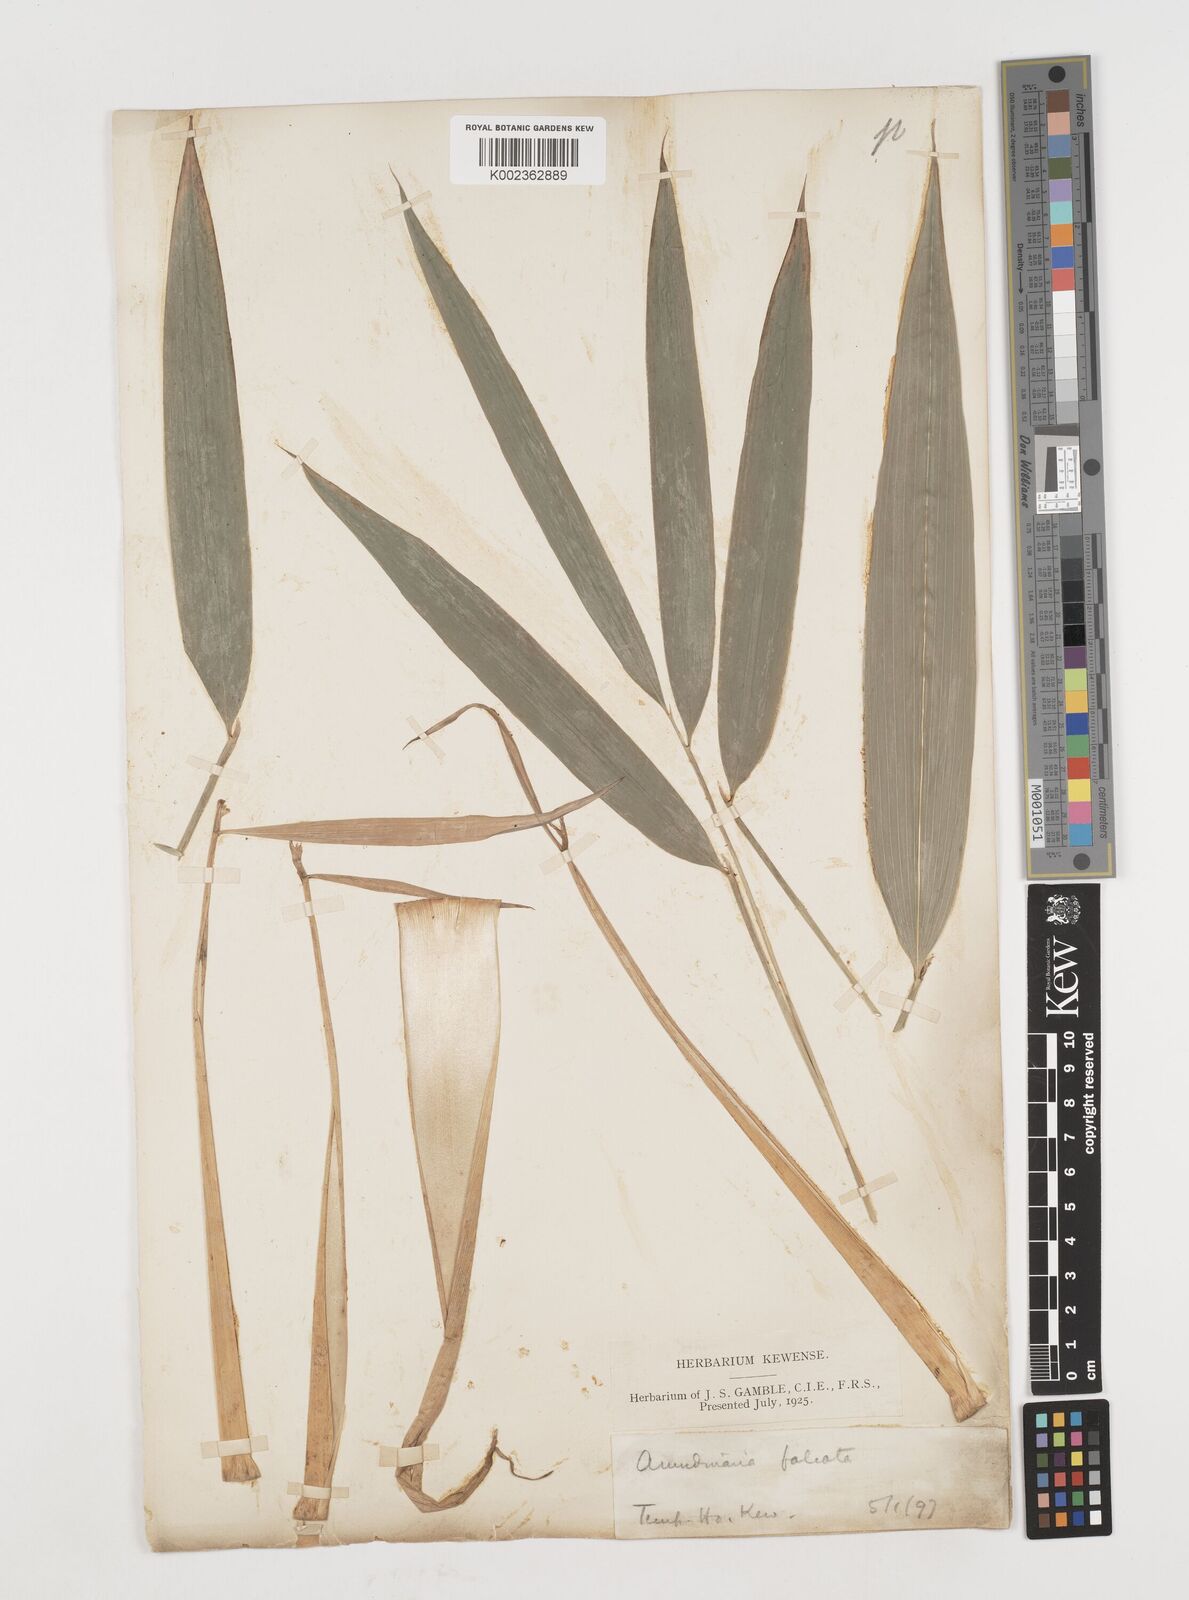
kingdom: Plantae
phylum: Tracheophyta
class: Liliopsida
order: Poales
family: Poaceae
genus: Drepanostachyum
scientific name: Drepanostachyum falcatum
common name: Himalayan bamboo
